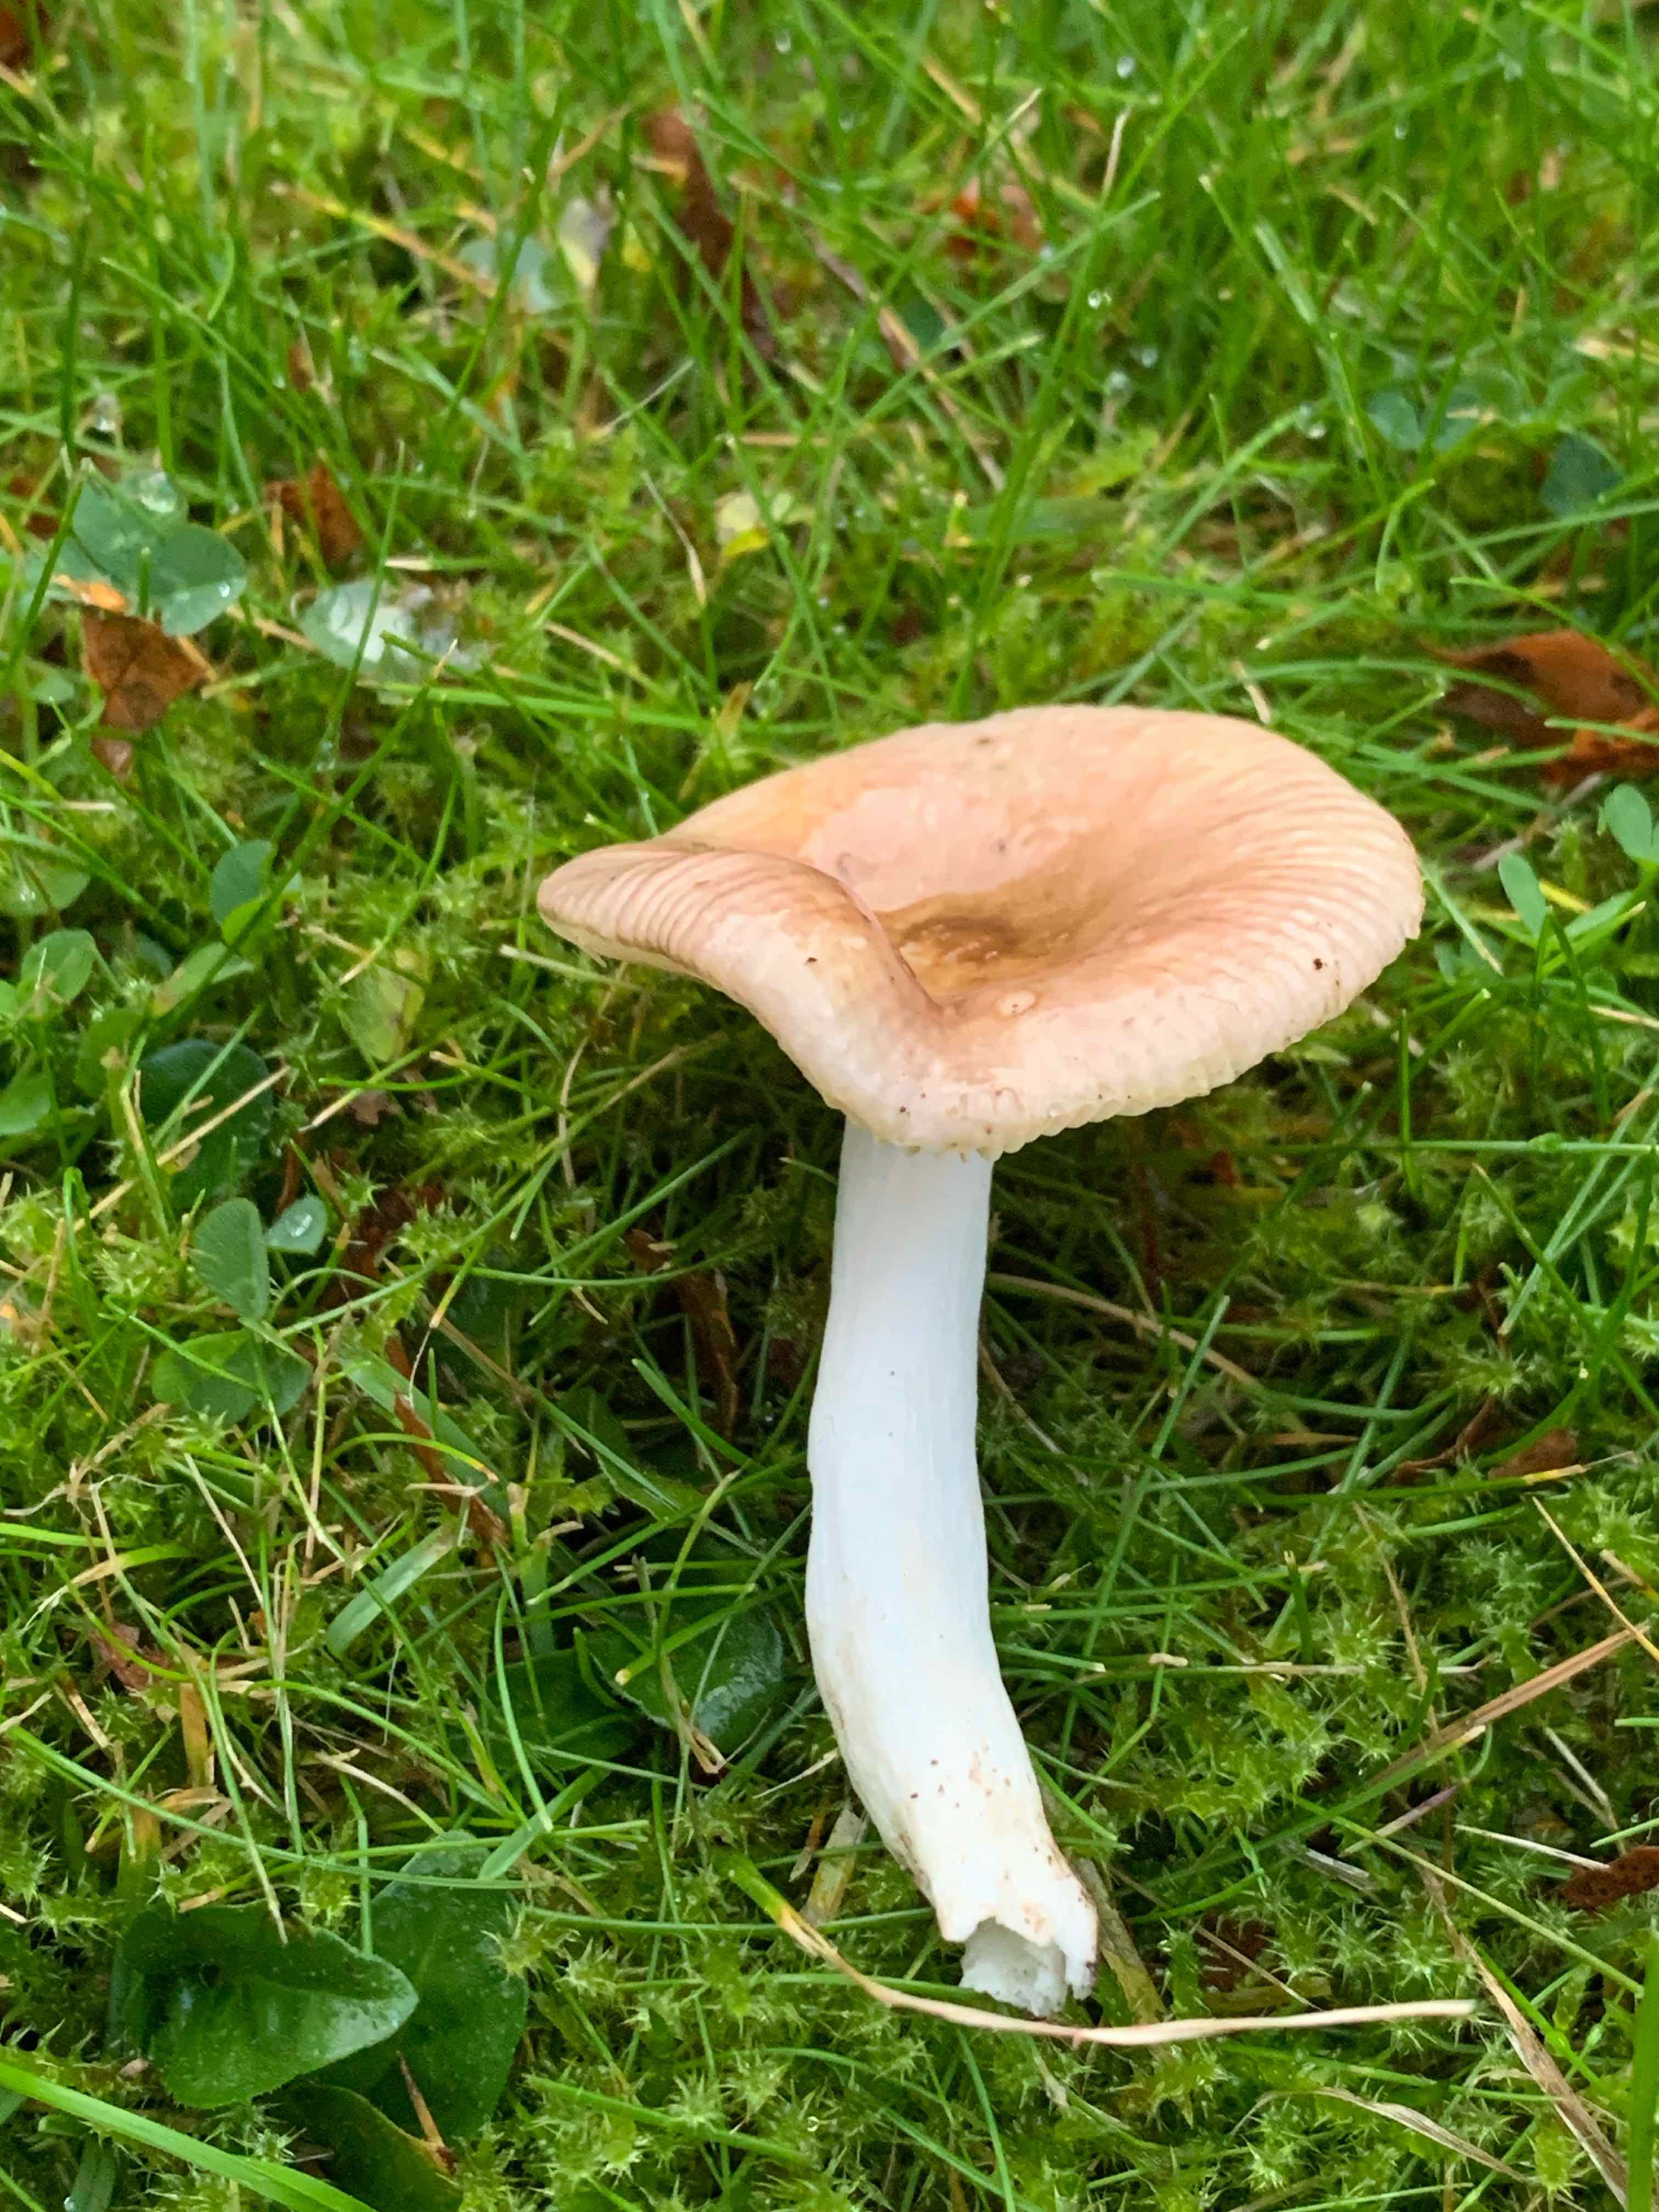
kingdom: Fungi
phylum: Basidiomycota
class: Agaricomycetes
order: Russulales
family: Russulaceae
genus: Russula
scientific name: Russula
